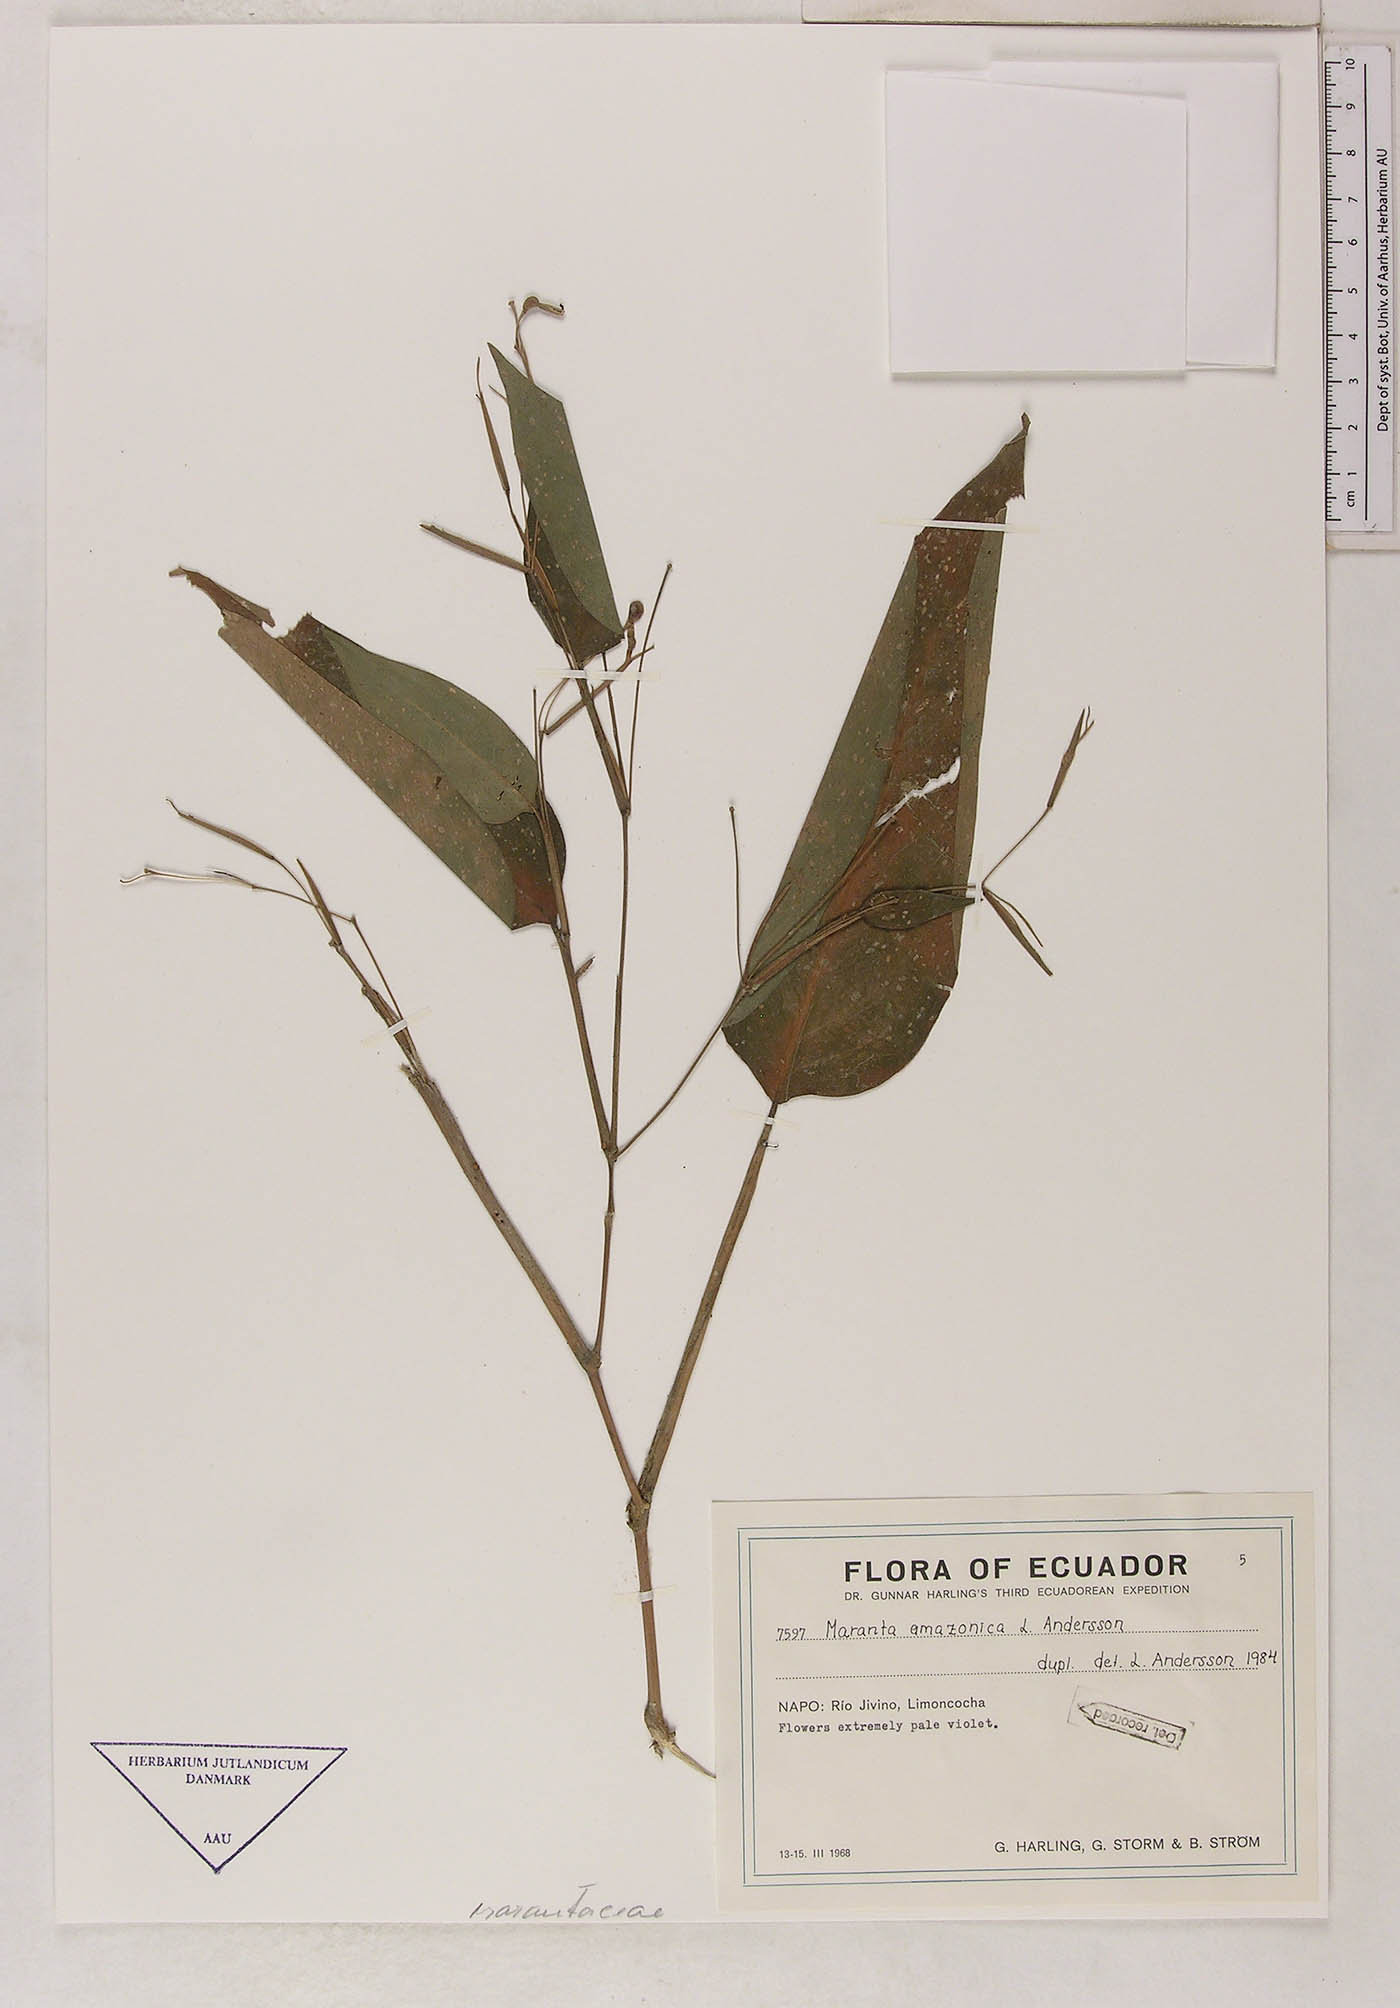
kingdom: Plantae
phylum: Tracheophyta
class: Liliopsida
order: Zingiberales
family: Marantaceae
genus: Maranta
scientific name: Maranta amazonica
